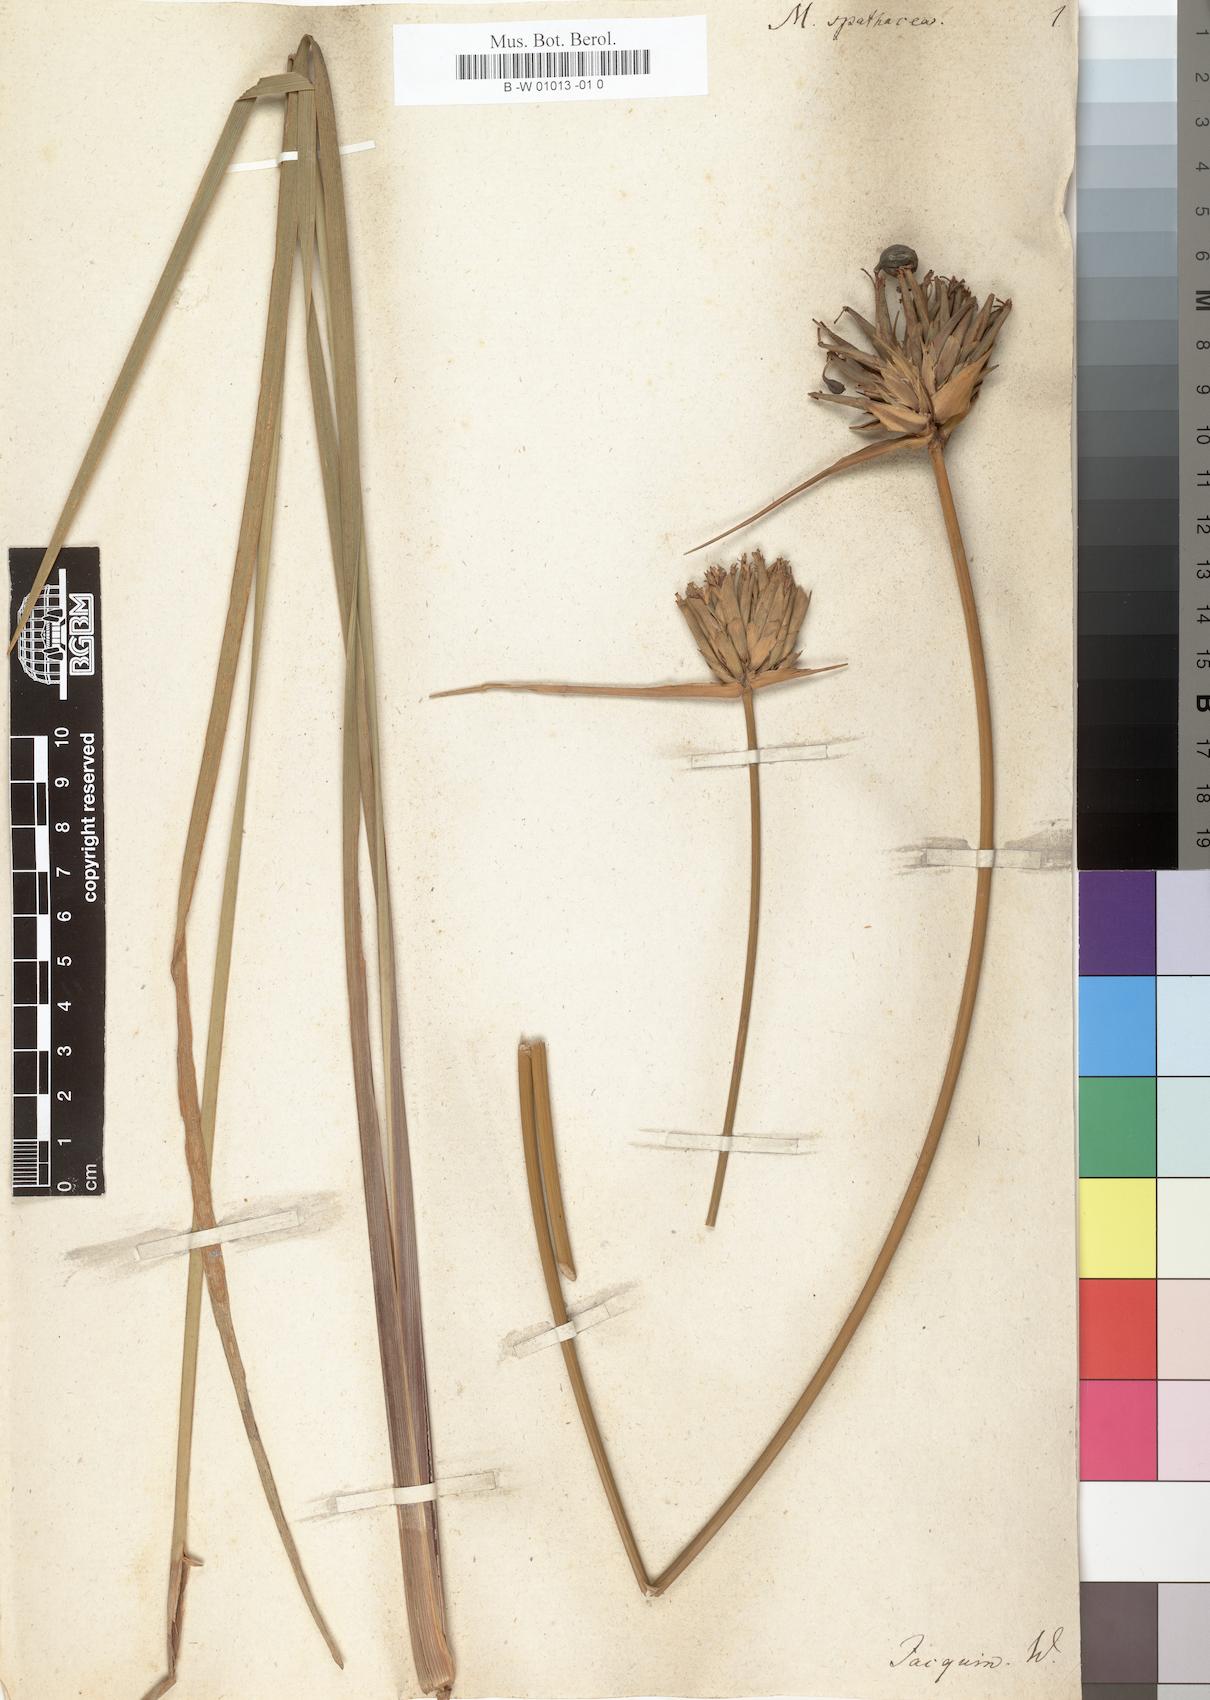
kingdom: Plantae
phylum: Tracheophyta
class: Liliopsida
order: Asparagales
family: Iridaceae
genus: Moraea
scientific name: Moraea spathacea
